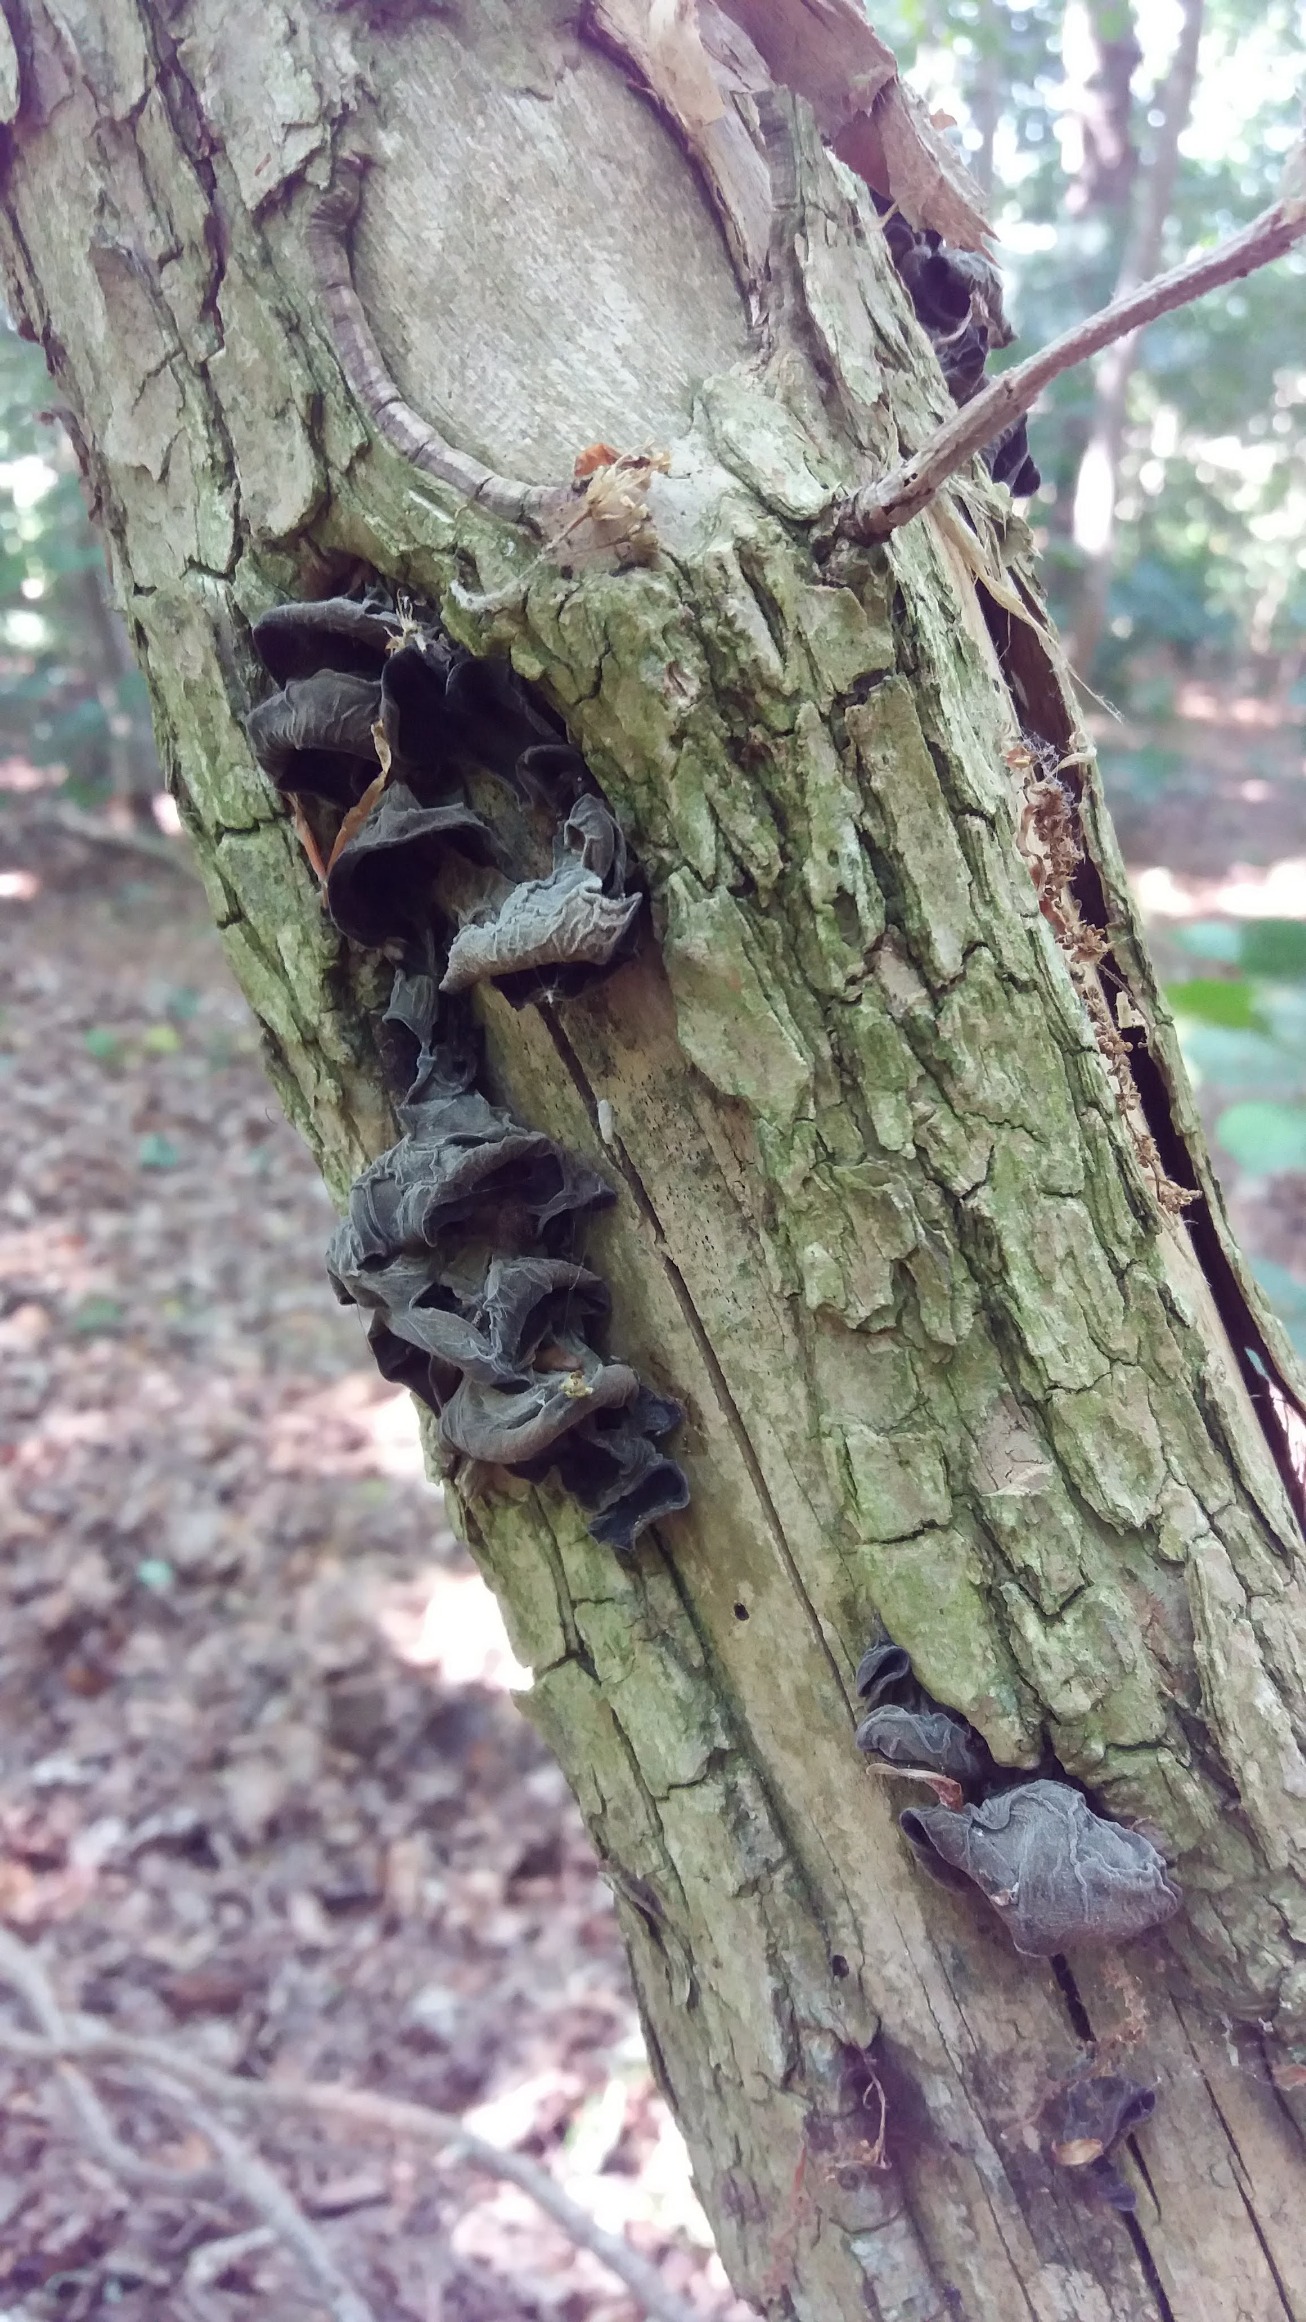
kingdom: Fungi
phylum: Basidiomycota
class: Agaricomycetes
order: Auriculariales
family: Auriculariaceae
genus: Auricularia
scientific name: Auricularia auricula-judae
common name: Almindelig judasøre
